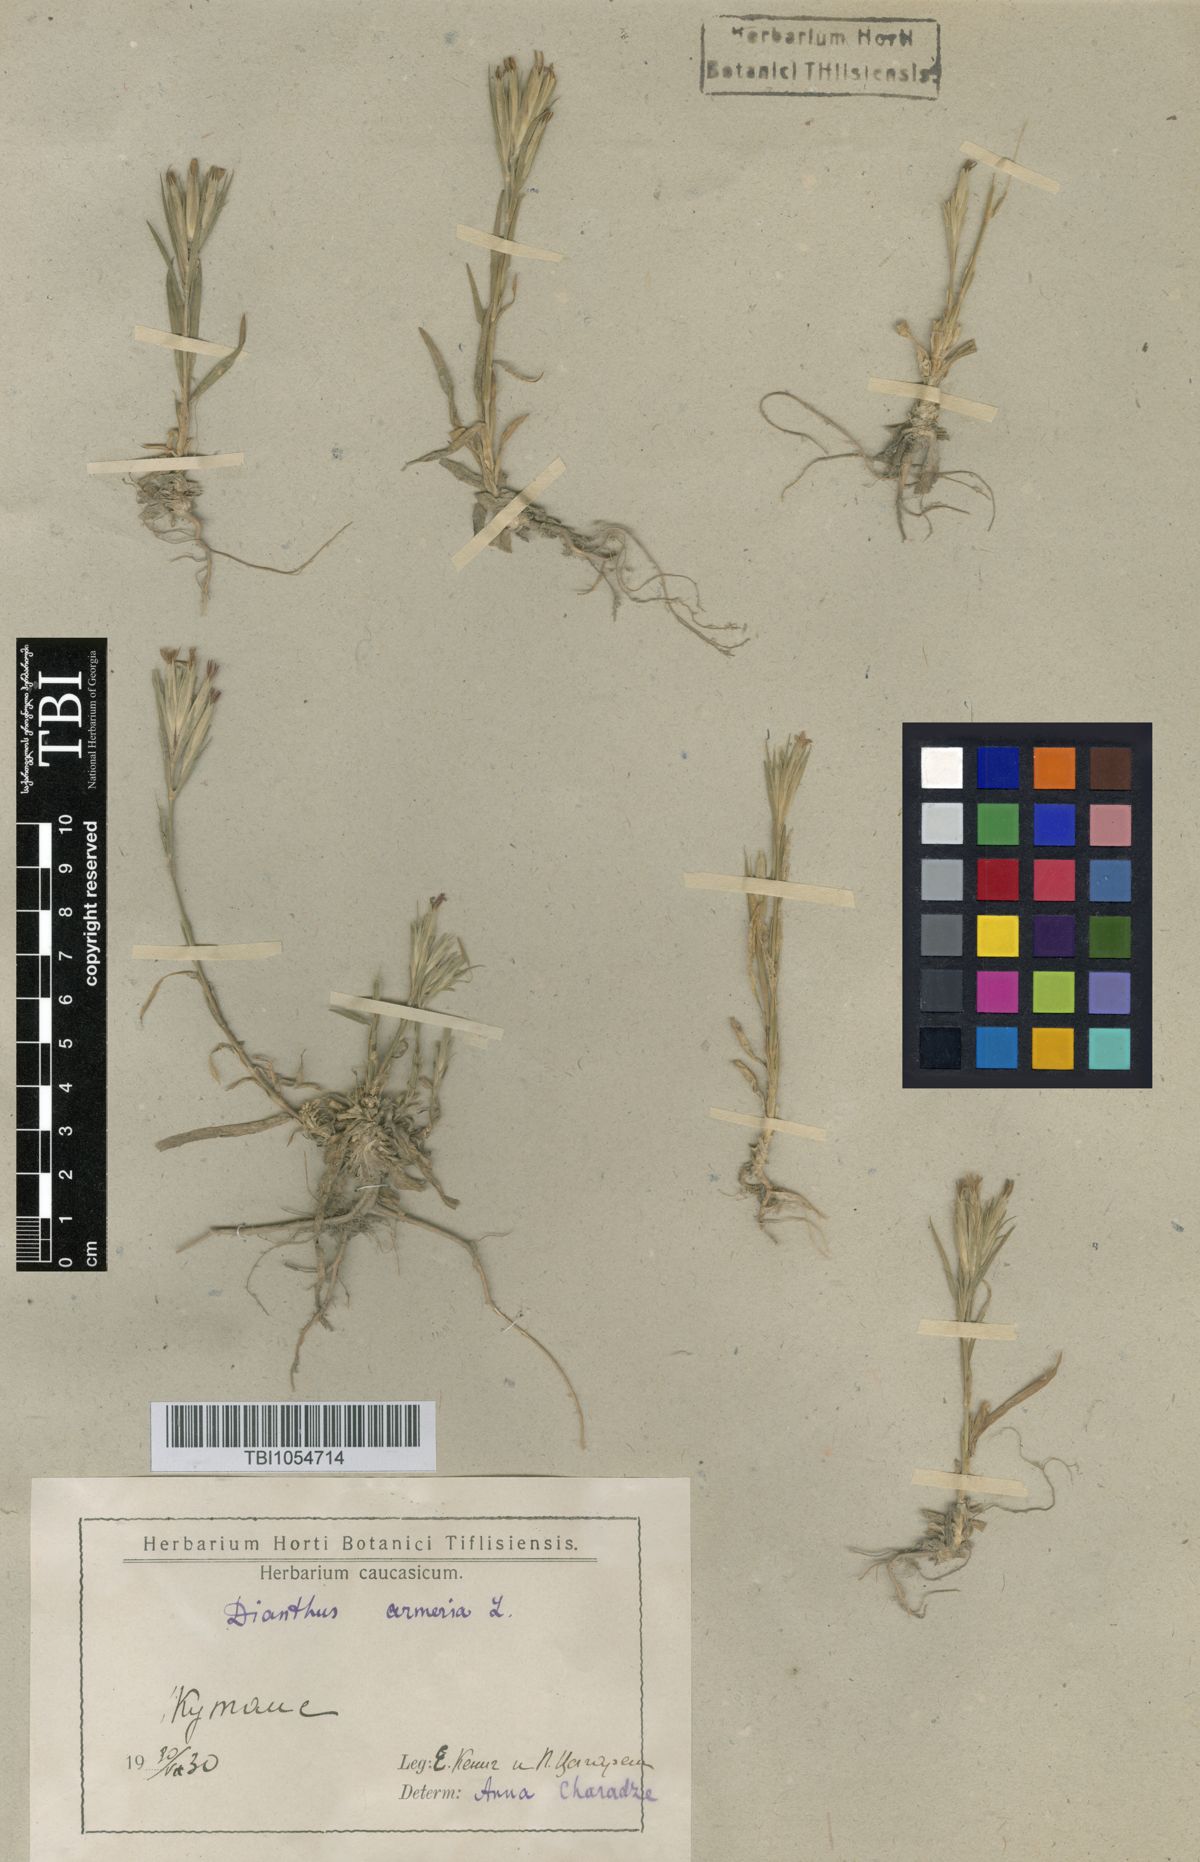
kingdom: Plantae
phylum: Tracheophyta
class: Magnoliopsida
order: Caryophyllales
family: Caryophyllaceae
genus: Dianthus
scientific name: Dianthus armeria
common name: Deptford pink
